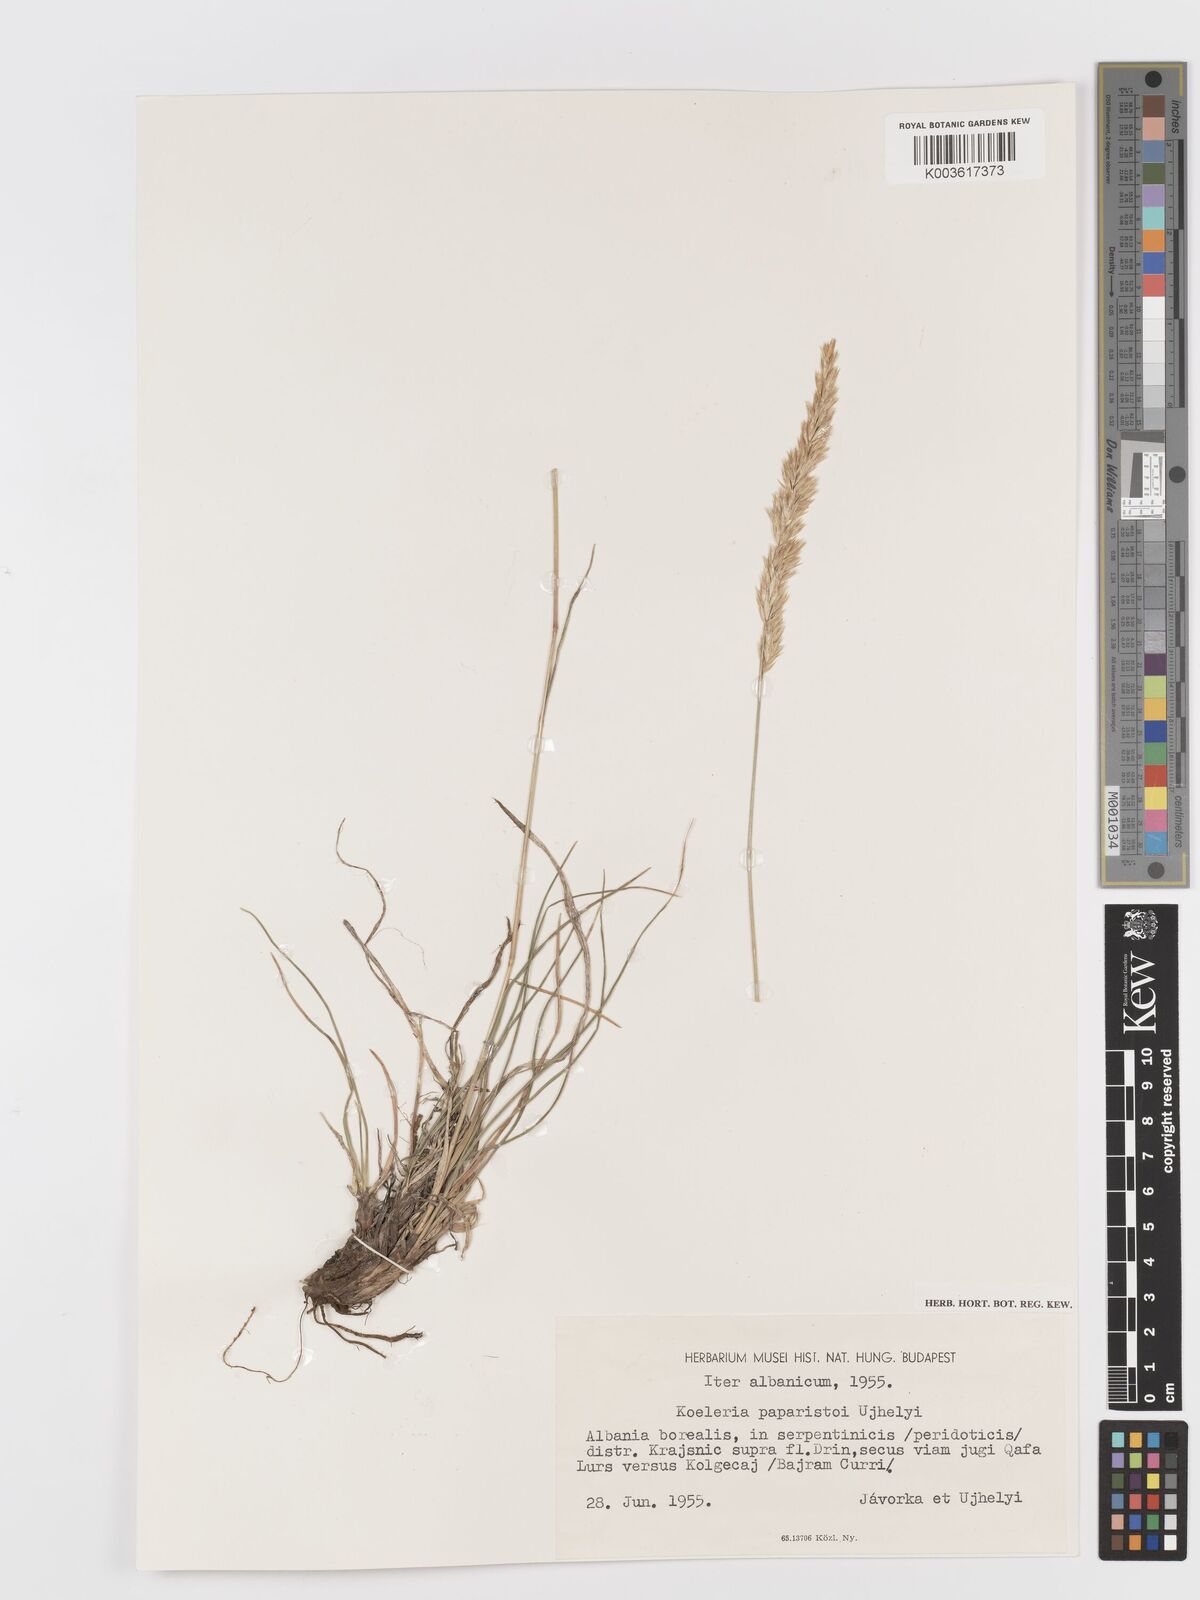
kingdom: Plantae
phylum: Tracheophyta
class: Liliopsida
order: Poales
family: Poaceae
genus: Koeleria
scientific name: Koeleria
